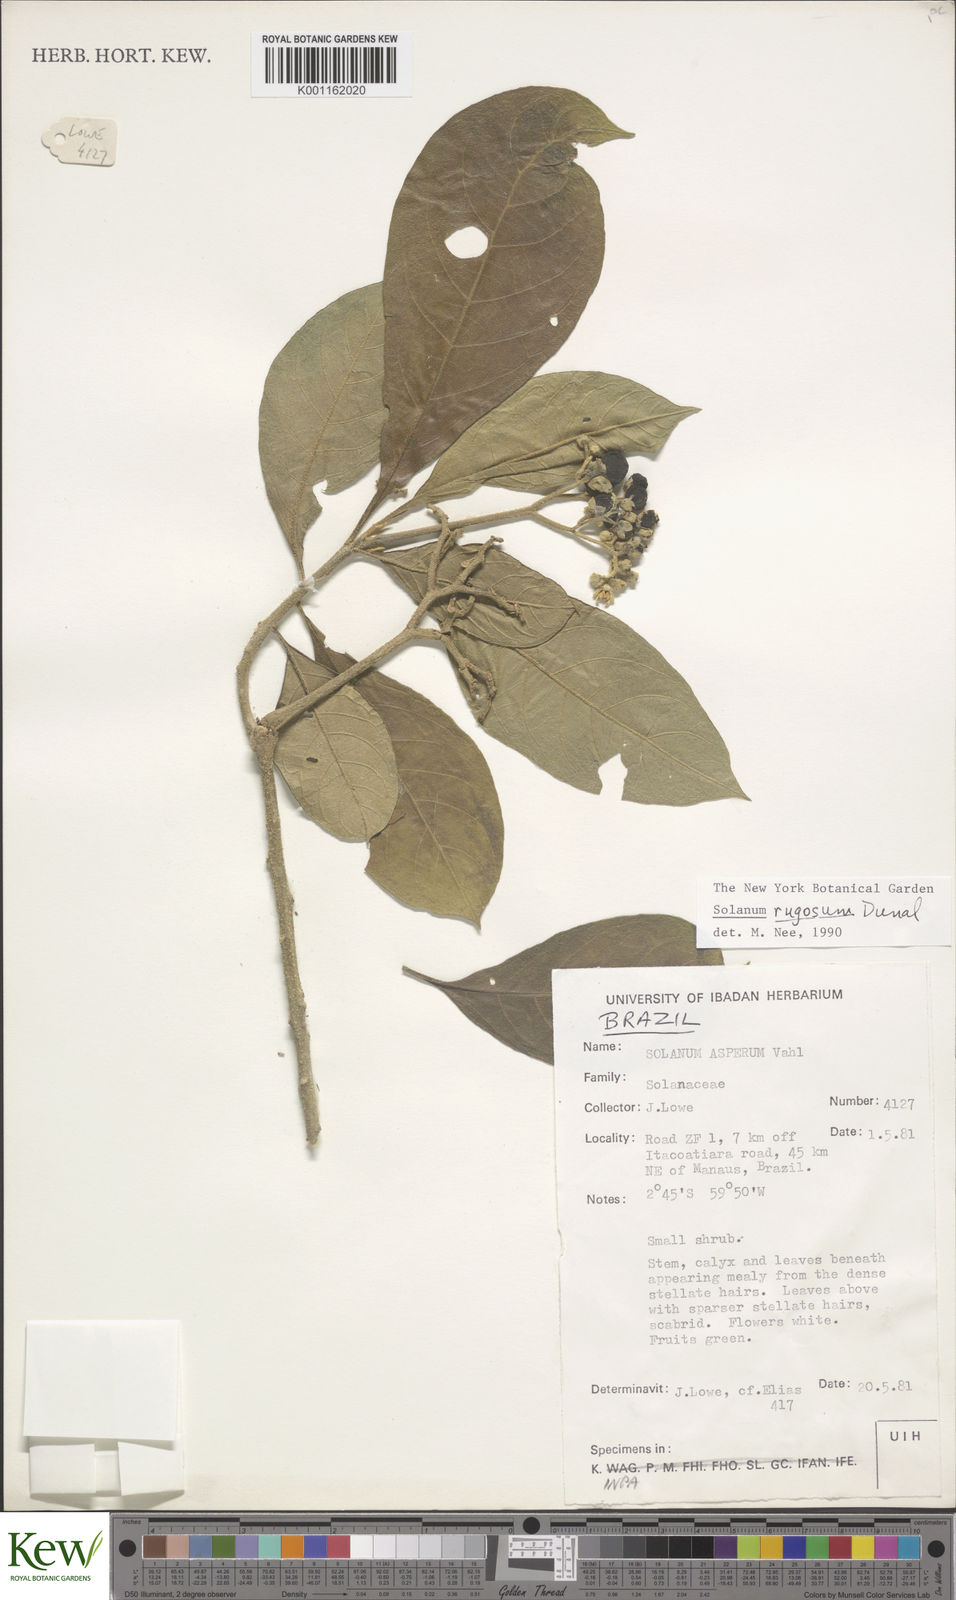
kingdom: Plantae
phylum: Tracheophyta
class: Magnoliopsida
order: Solanales
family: Solanaceae
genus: Solanum
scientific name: Solanum rugosum
